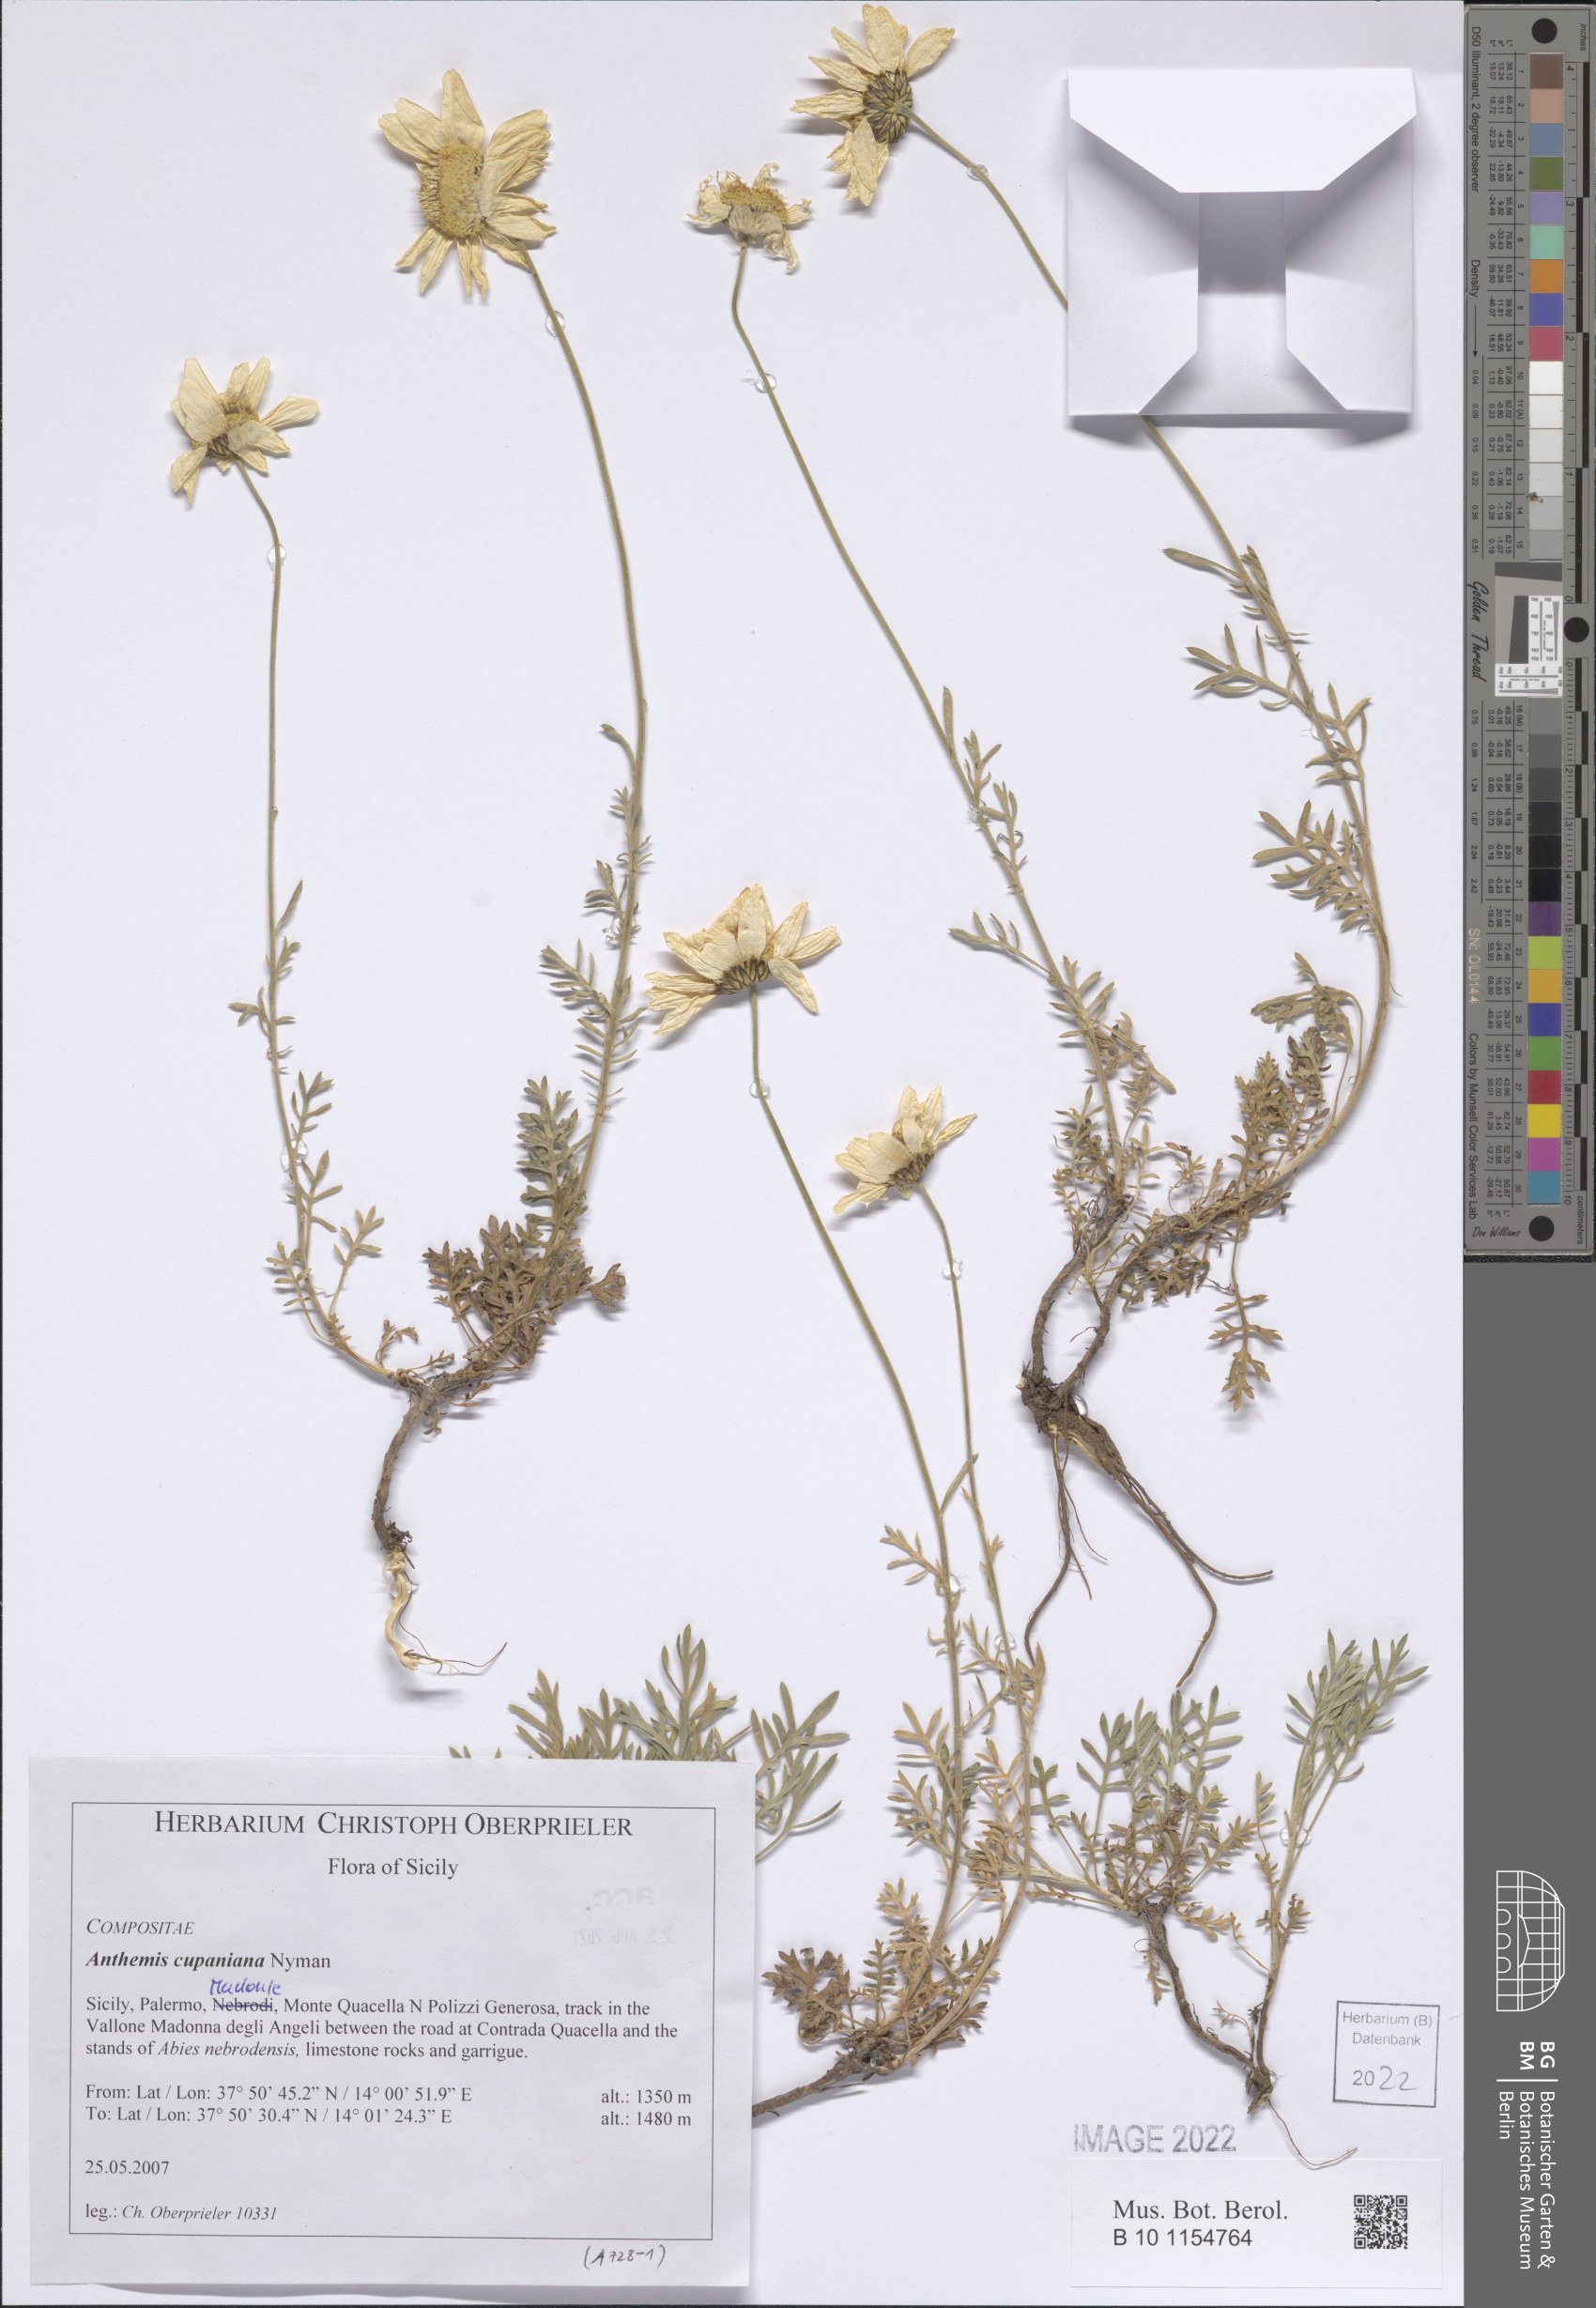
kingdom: Plantae
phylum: Tracheophyta
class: Magnoliopsida
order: Asterales
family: Asteraceae
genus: Anthemis
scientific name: Anthemis cupaniana
